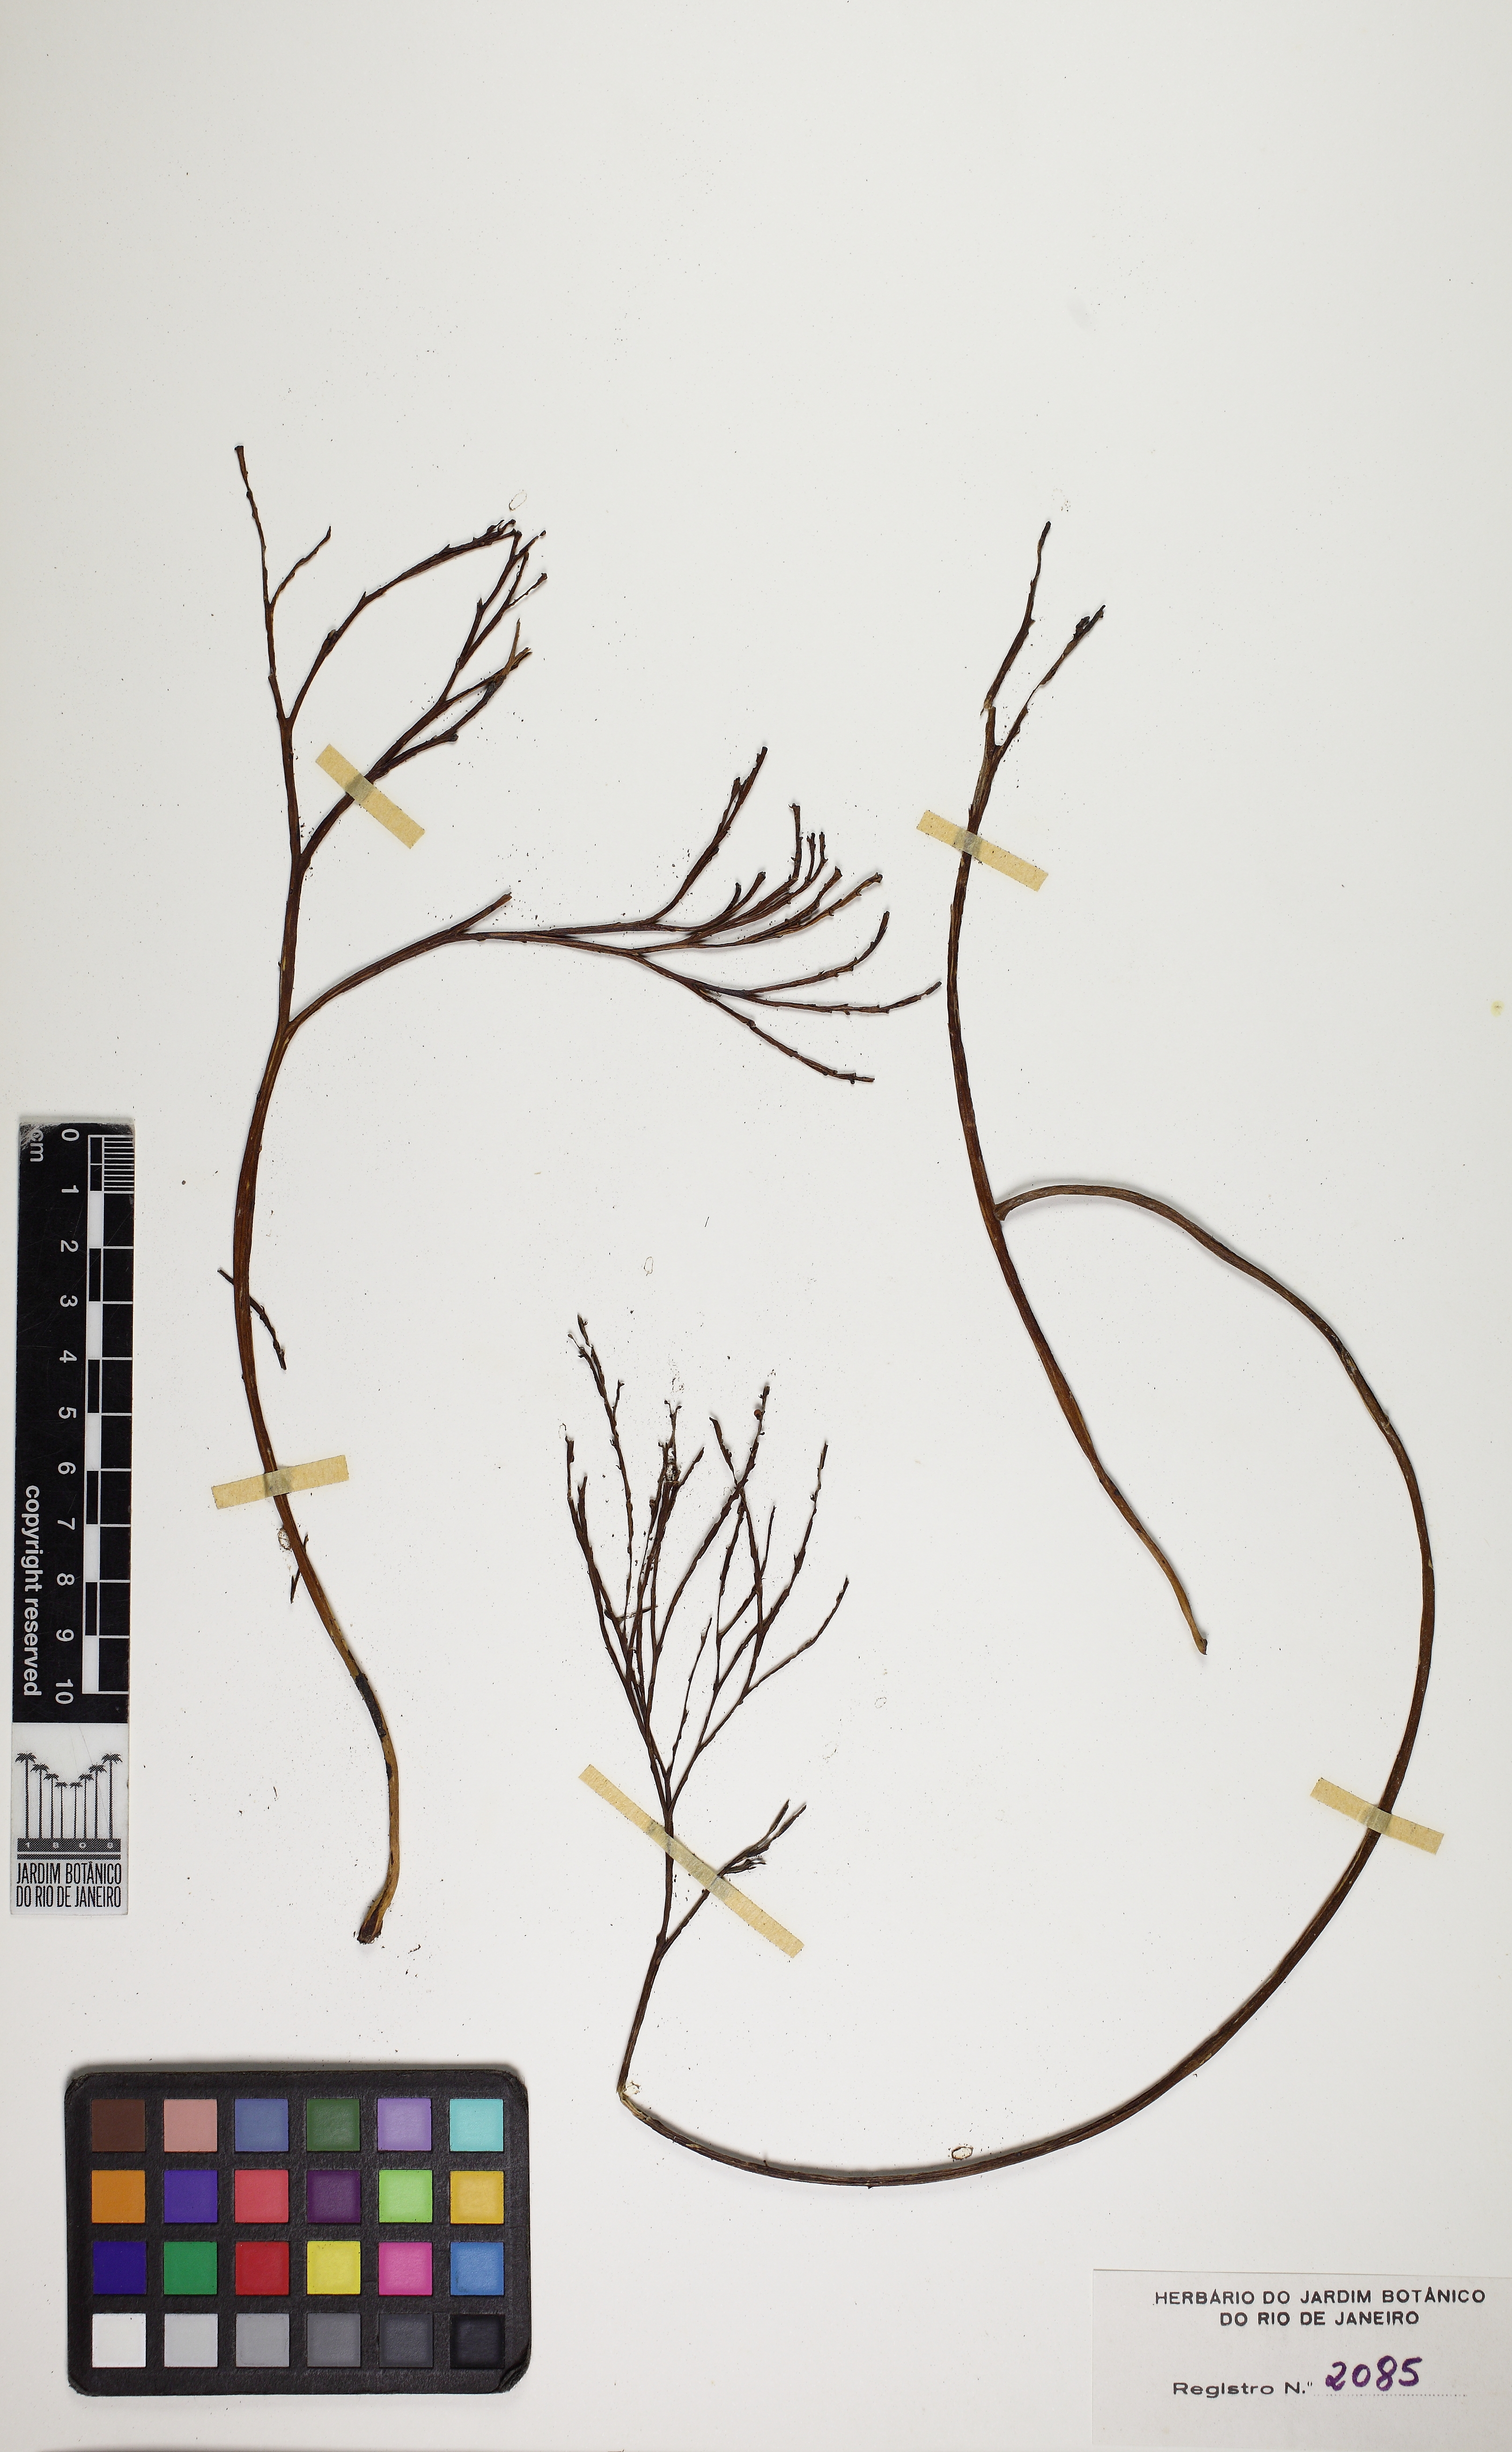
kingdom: Plantae
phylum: Tracheophyta
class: Polypodiopsida
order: Psilotales
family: Psilotaceae
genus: Psilotum
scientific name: Psilotum nudum
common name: Skeleton fork fern
